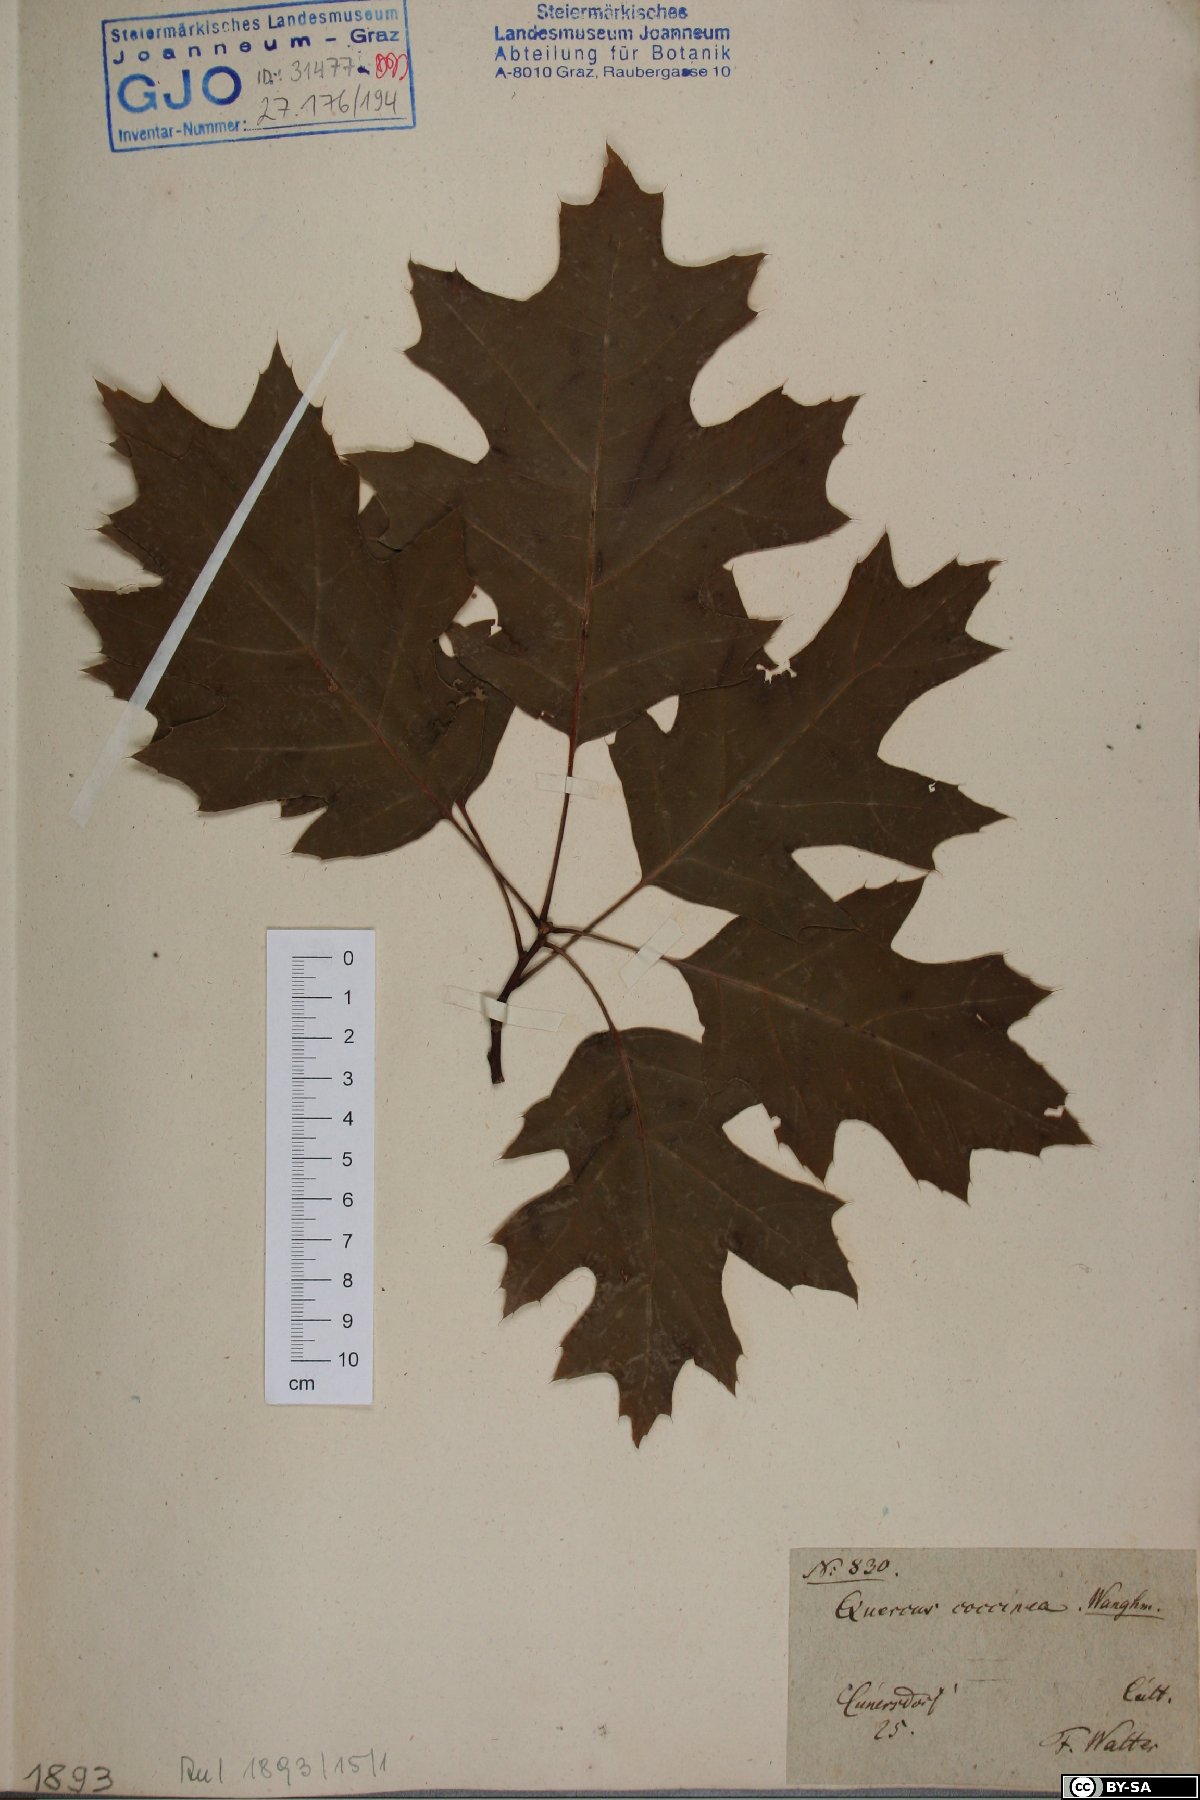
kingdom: Plantae
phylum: Tracheophyta
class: Magnoliopsida
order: Fagales
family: Fagaceae
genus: Quercus
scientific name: Quercus coccinea
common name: Scarlet oak
